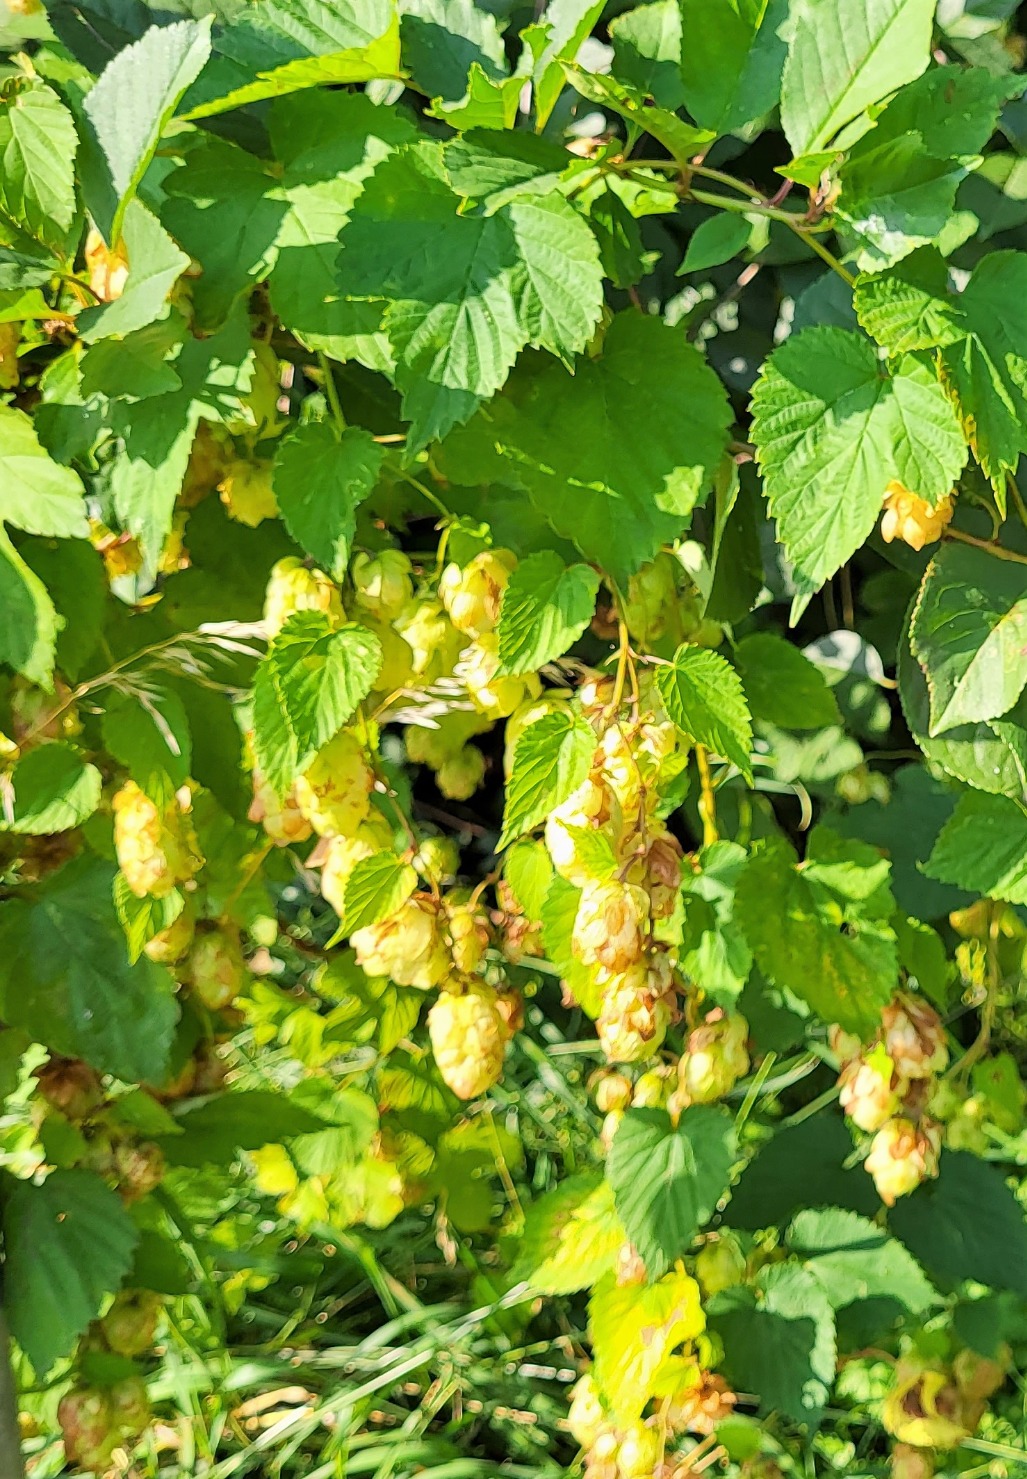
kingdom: Plantae
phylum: Tracheophyta
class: Magnoliopsida
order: Rosales
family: Cannabaceae
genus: Humulus
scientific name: Humulus lupulus
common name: Humle
